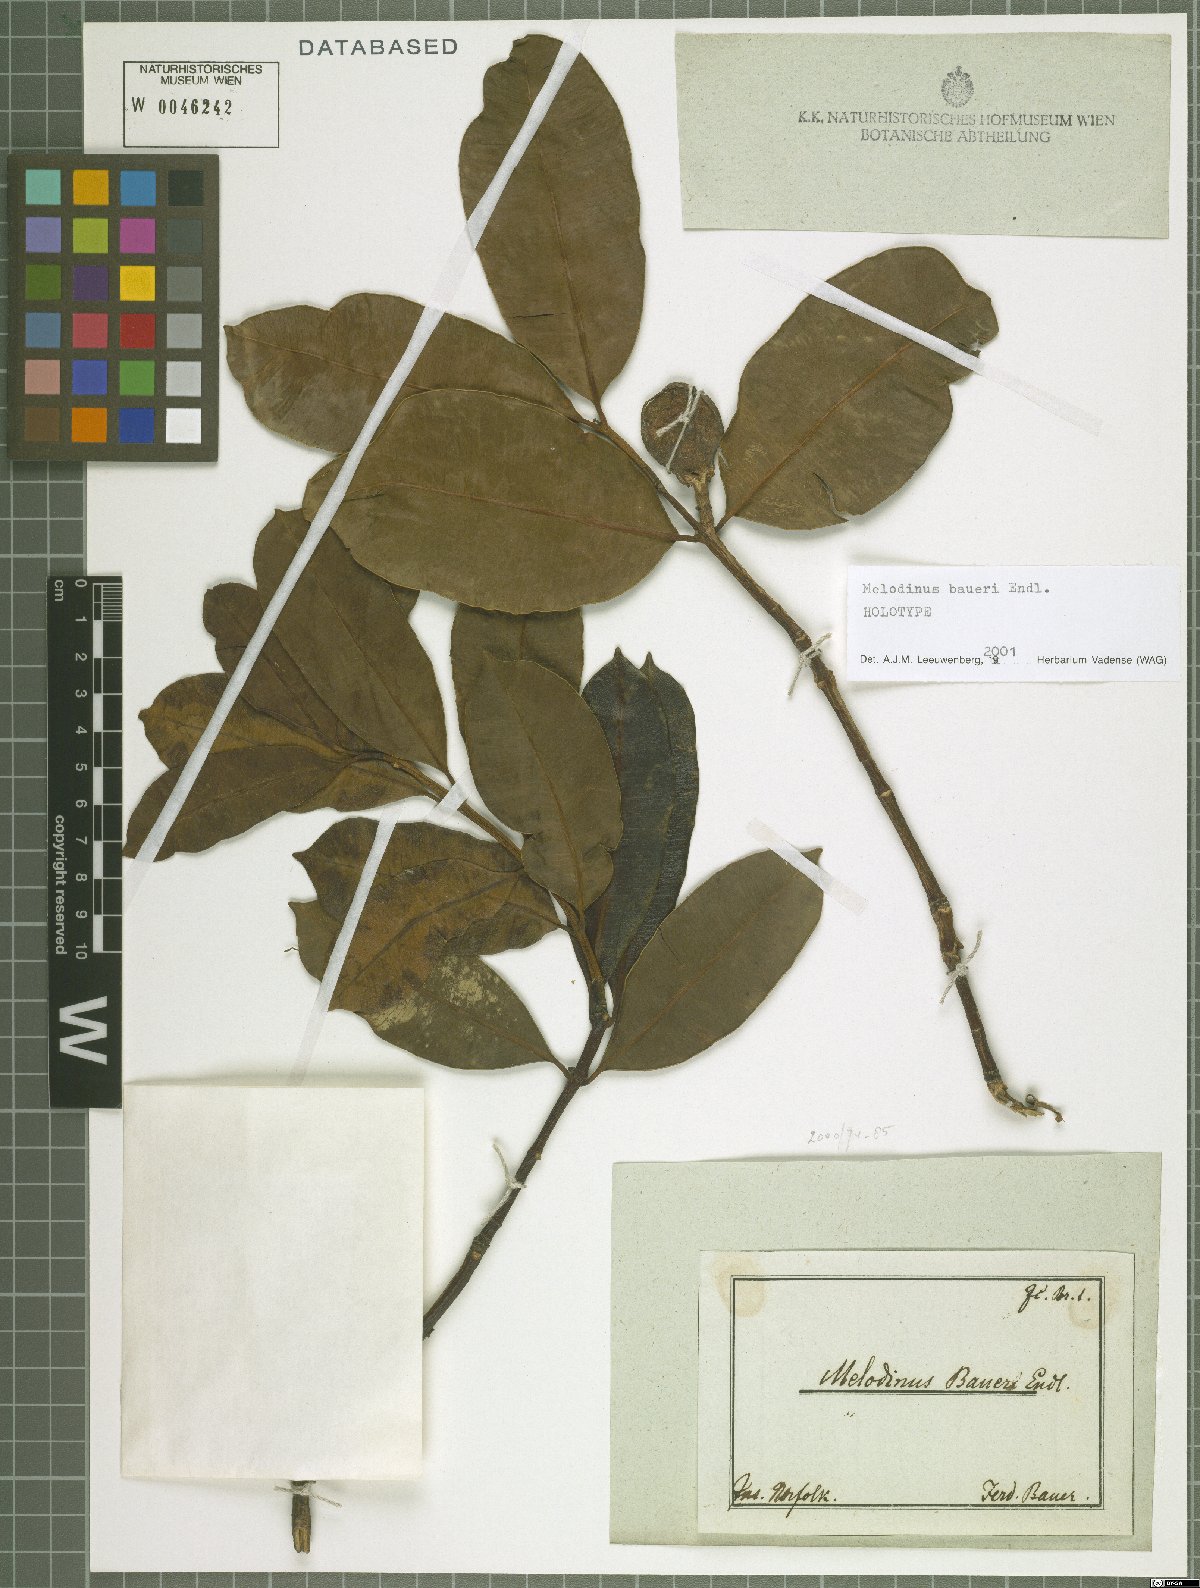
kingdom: Plantae
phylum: Tracheophyta
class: Magnoliopsida
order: Gentianales
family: Apocynaceae
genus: Melodinus
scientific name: Melodinus baueri
